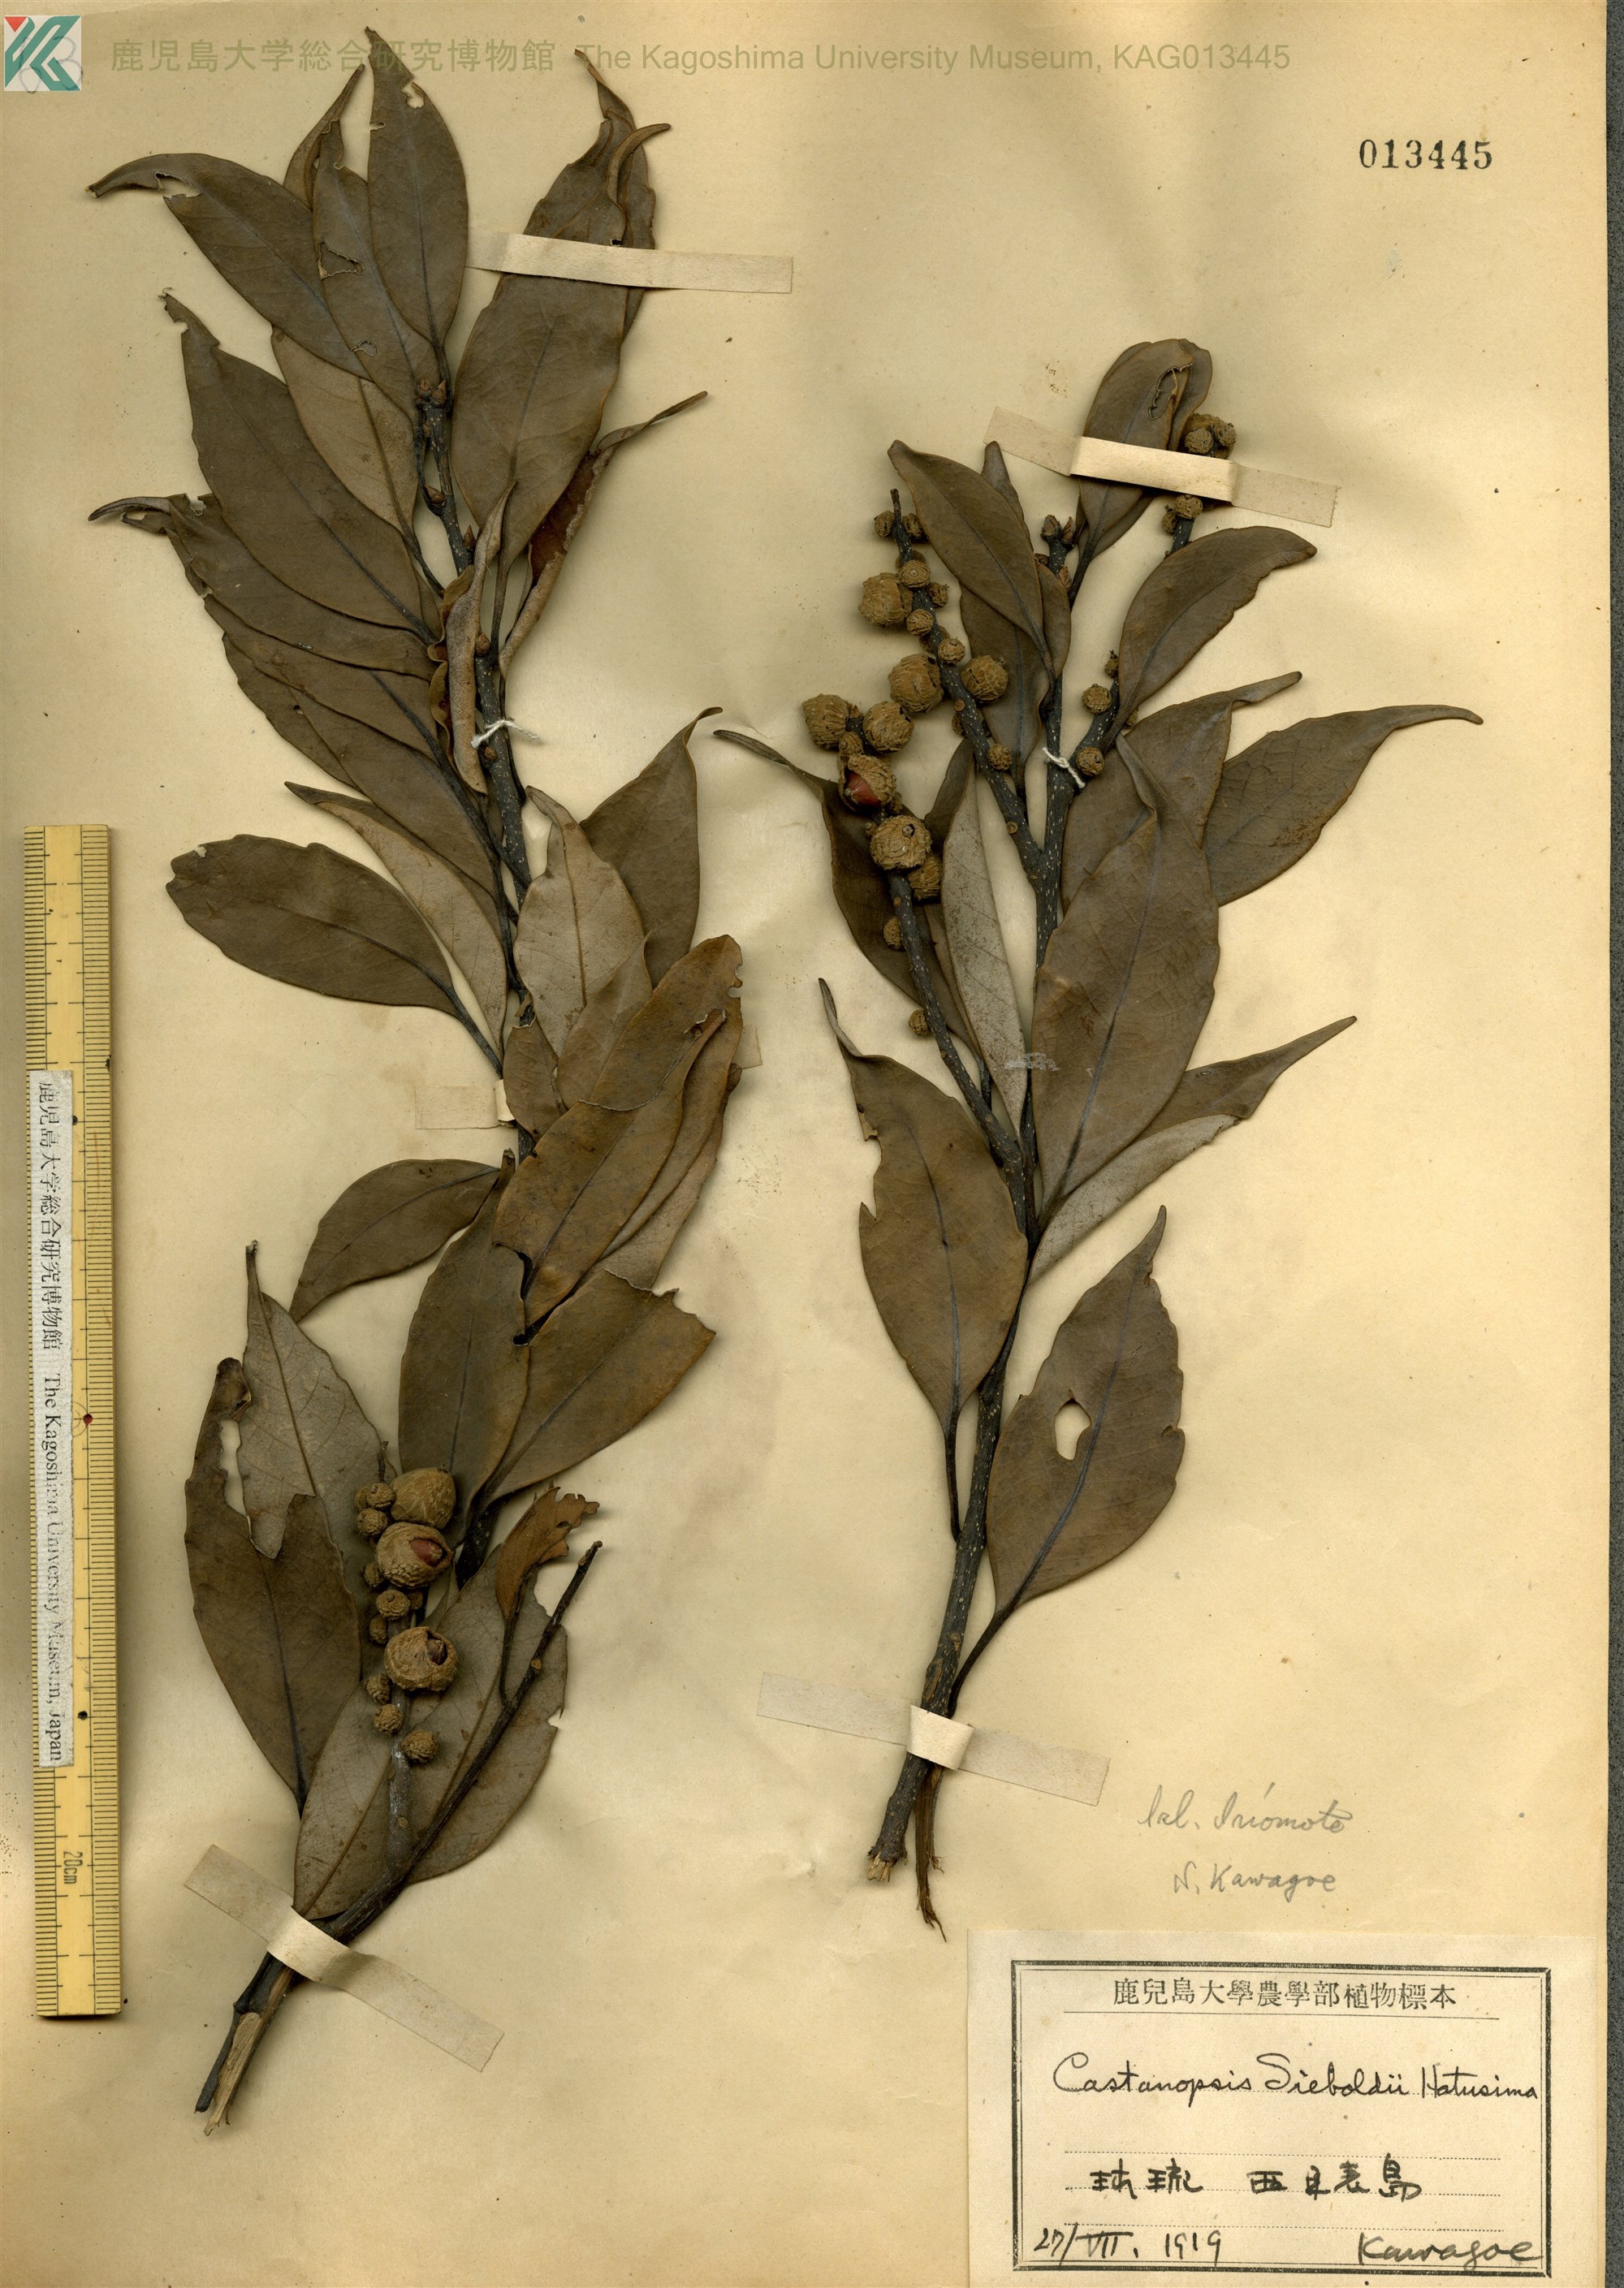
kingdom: Plantae
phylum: Tracheophyta
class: Magnoliopsida
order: Fagales
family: Fagaceae
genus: Castanopsis
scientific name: Castanopsis cuspidata
